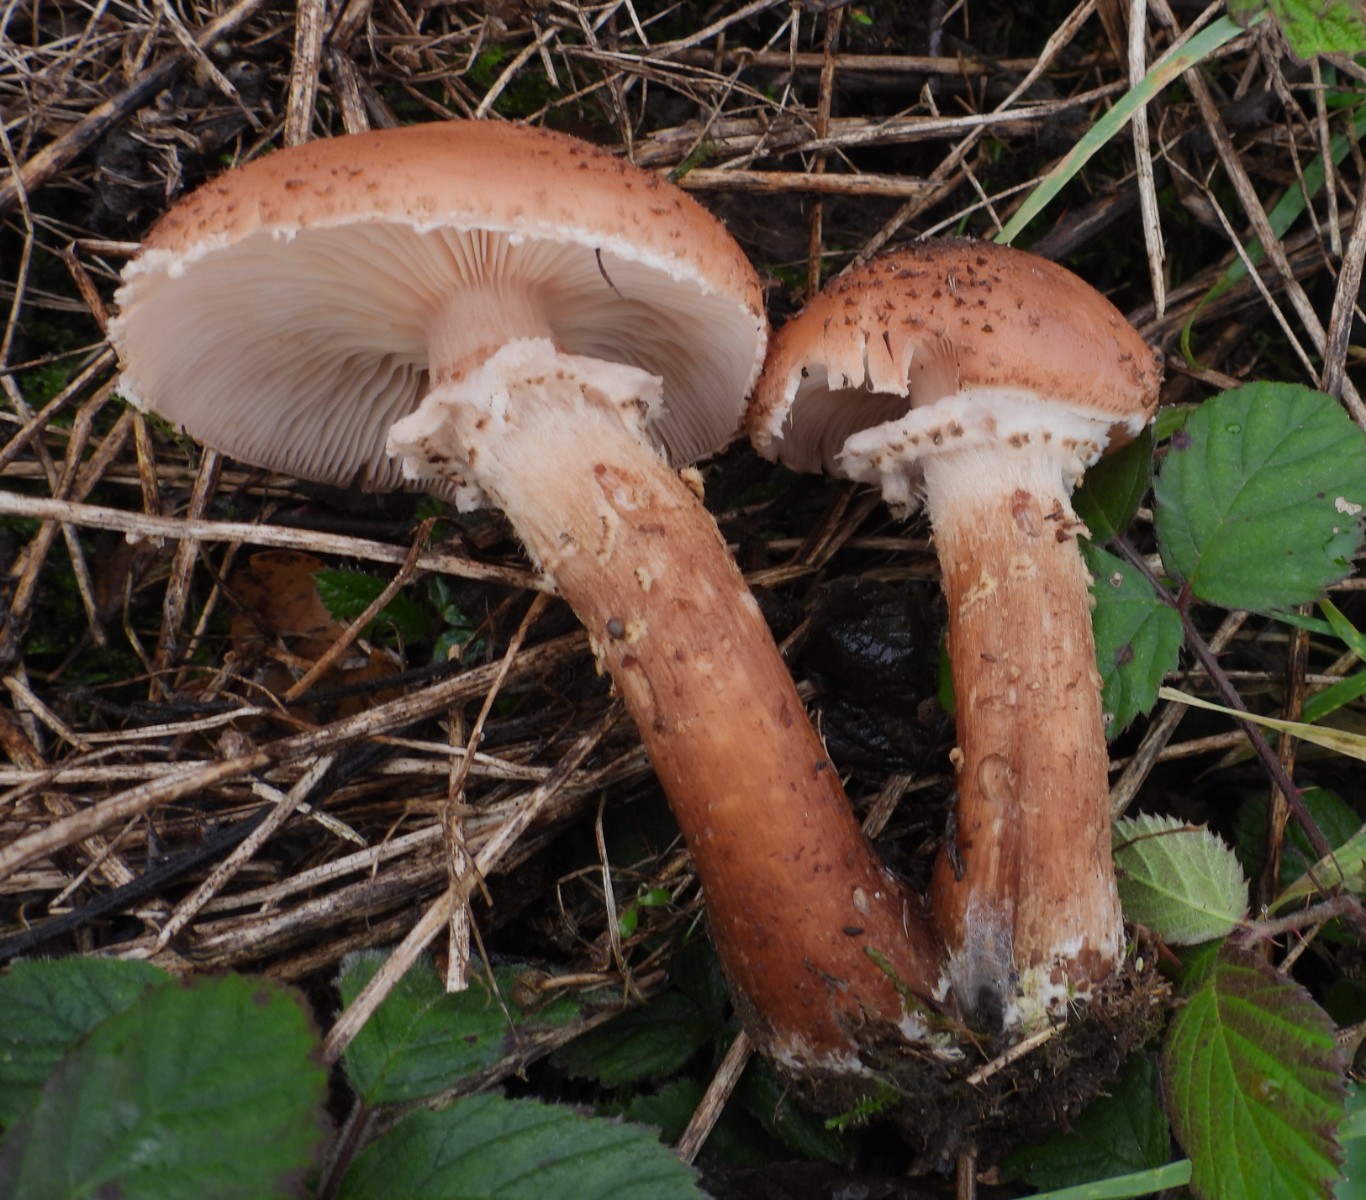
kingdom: Fungi
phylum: Basidiomycota
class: Agaricomycetes
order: Agaricales
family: Physalacriaceae
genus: Armillaria
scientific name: Armillaria ostoyae
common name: mørk honningsvamp
